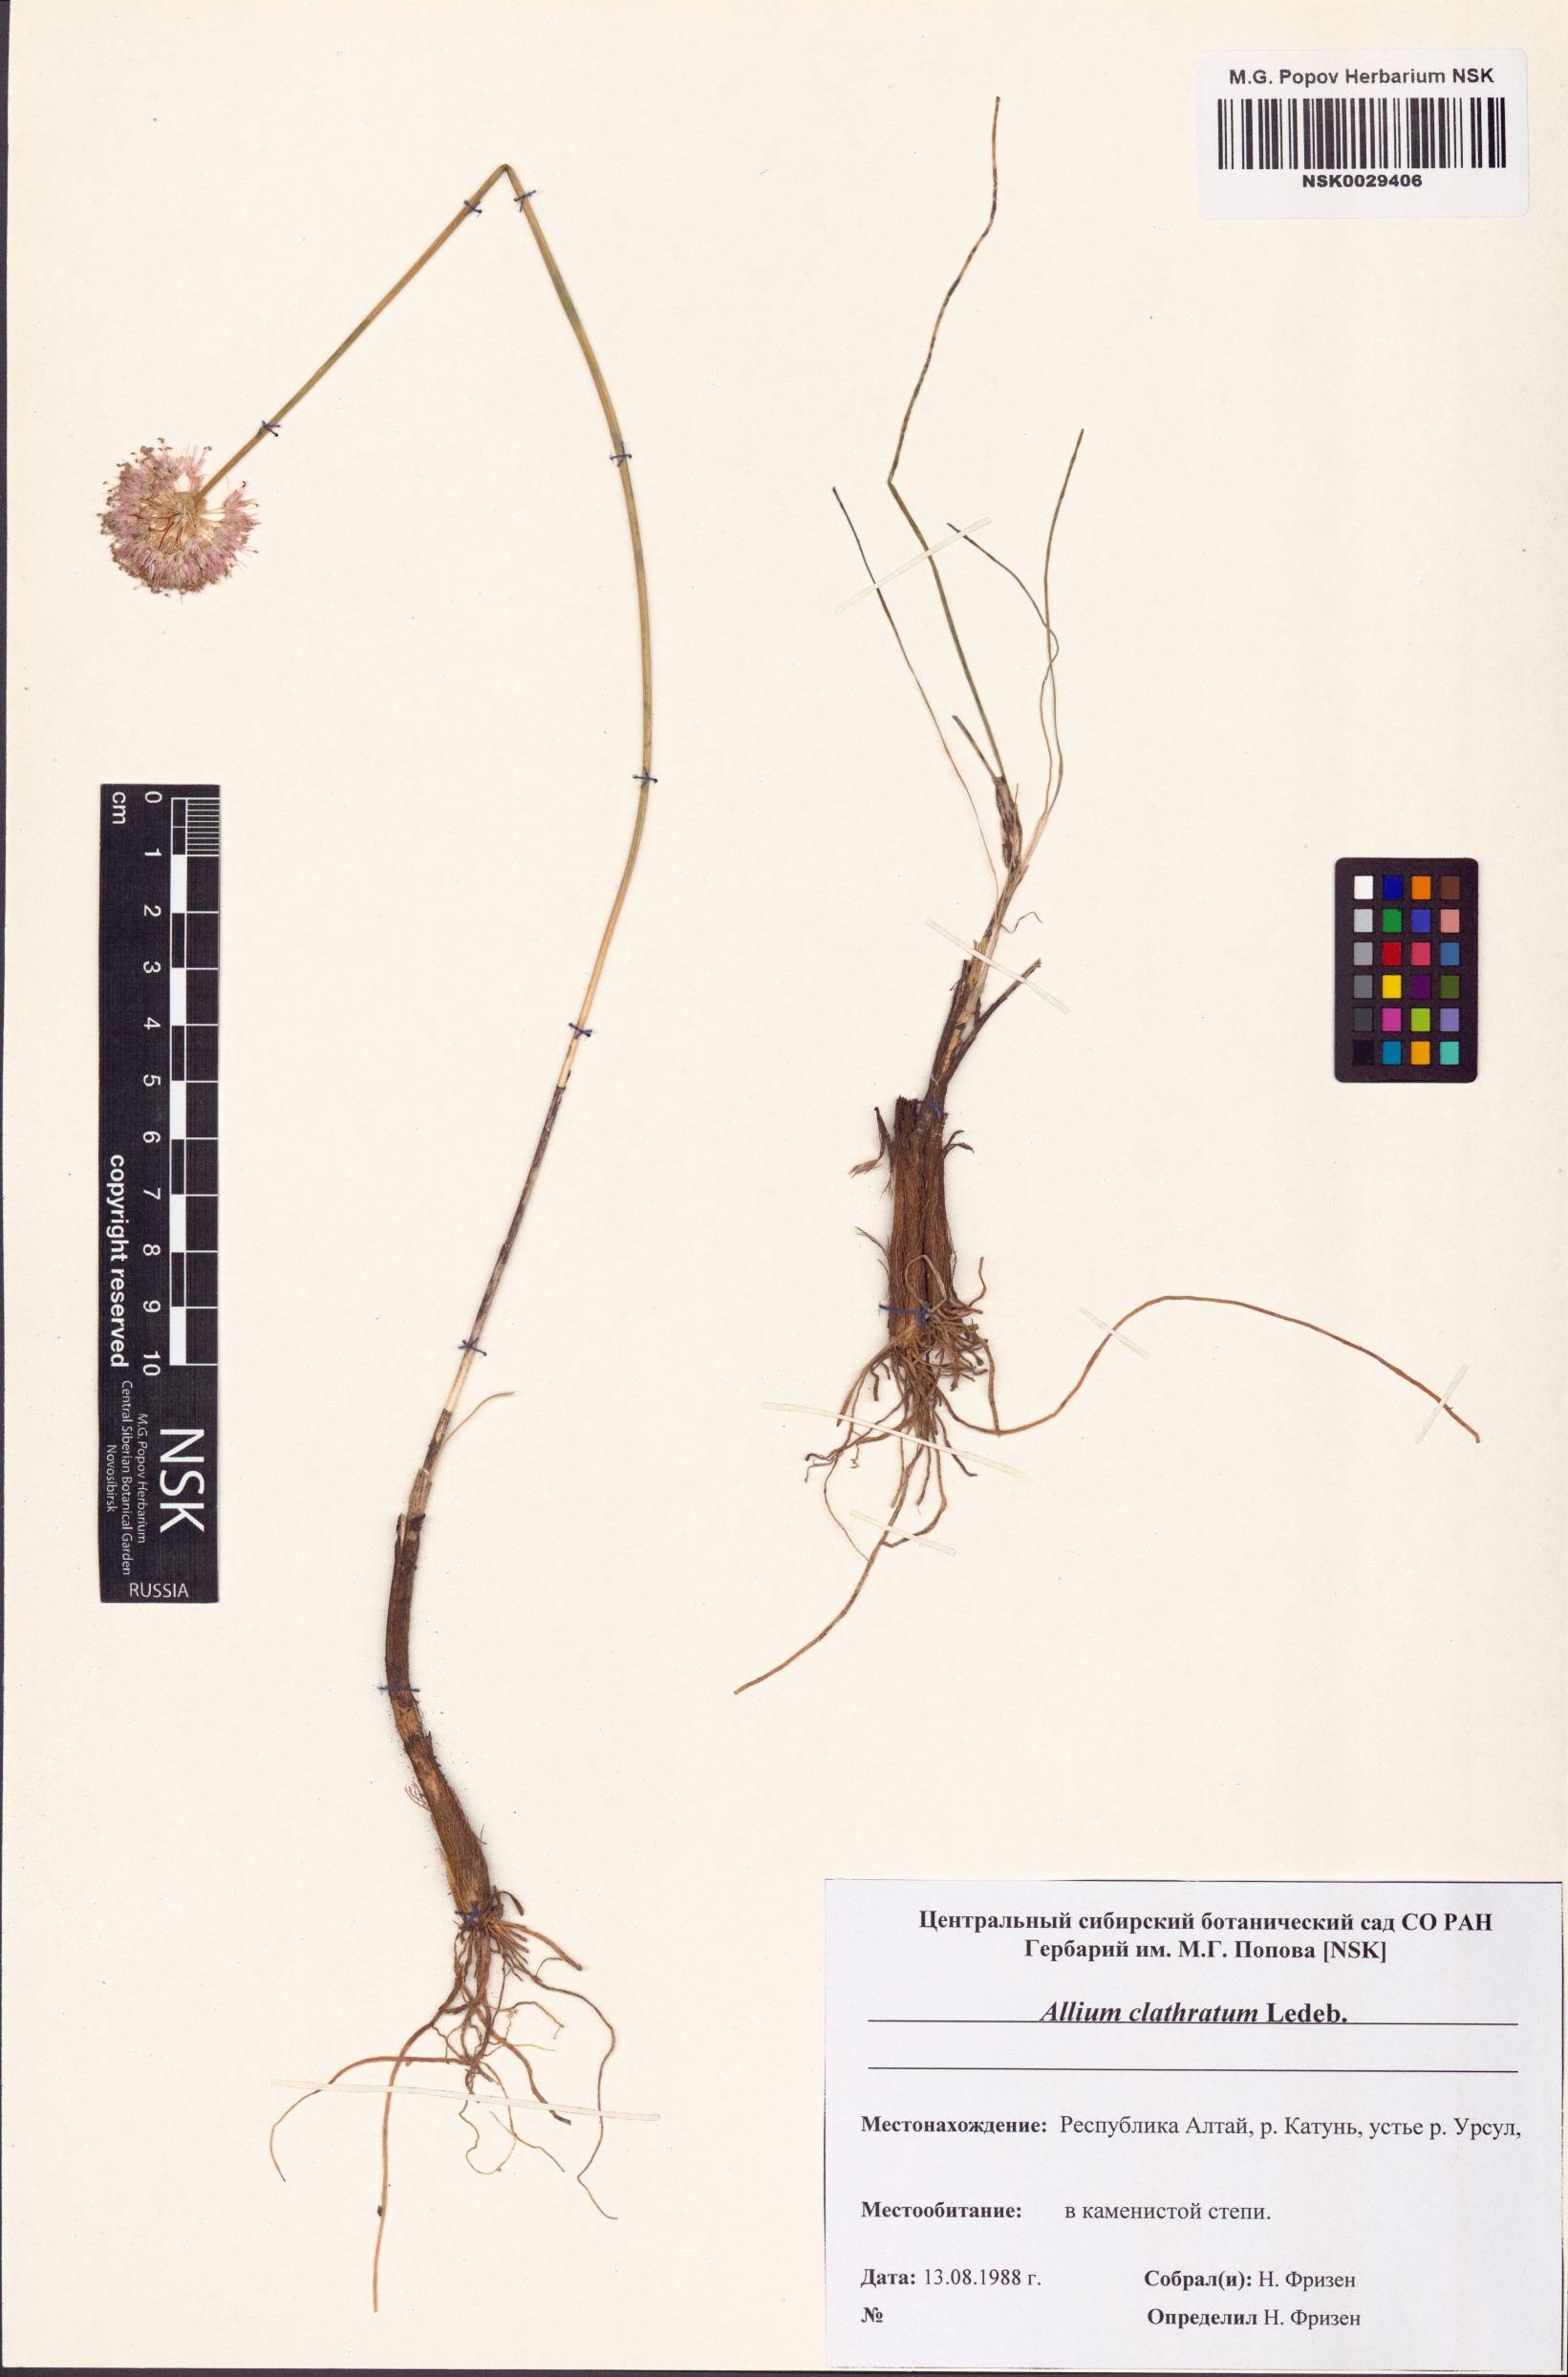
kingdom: Plantae
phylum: Tracheophyta
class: Liliopsida
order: Asparagales
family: Amaryllidaceae
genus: Allium
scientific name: Allium clathratum
